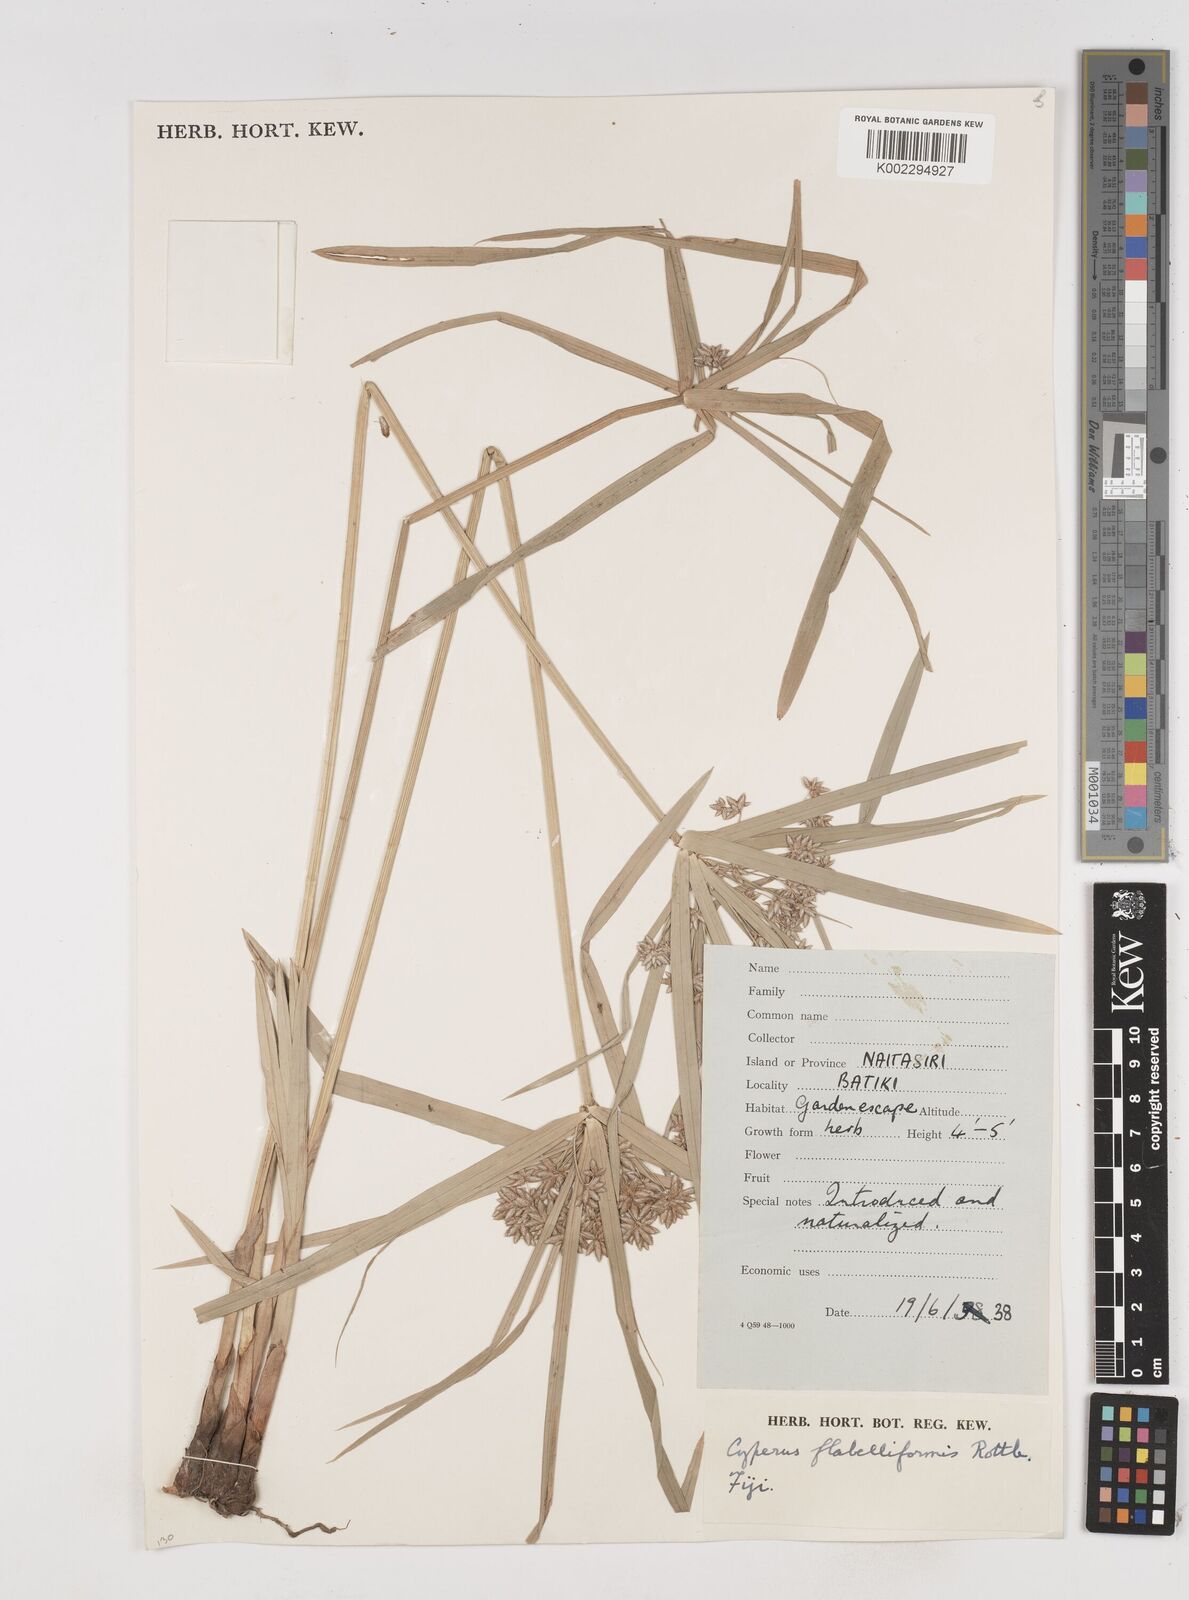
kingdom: Plantae
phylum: Tracheophyta
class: Liliopsida
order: Poales
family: Cyperaceae
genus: Cyperus
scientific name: Cyperus alternifolius
